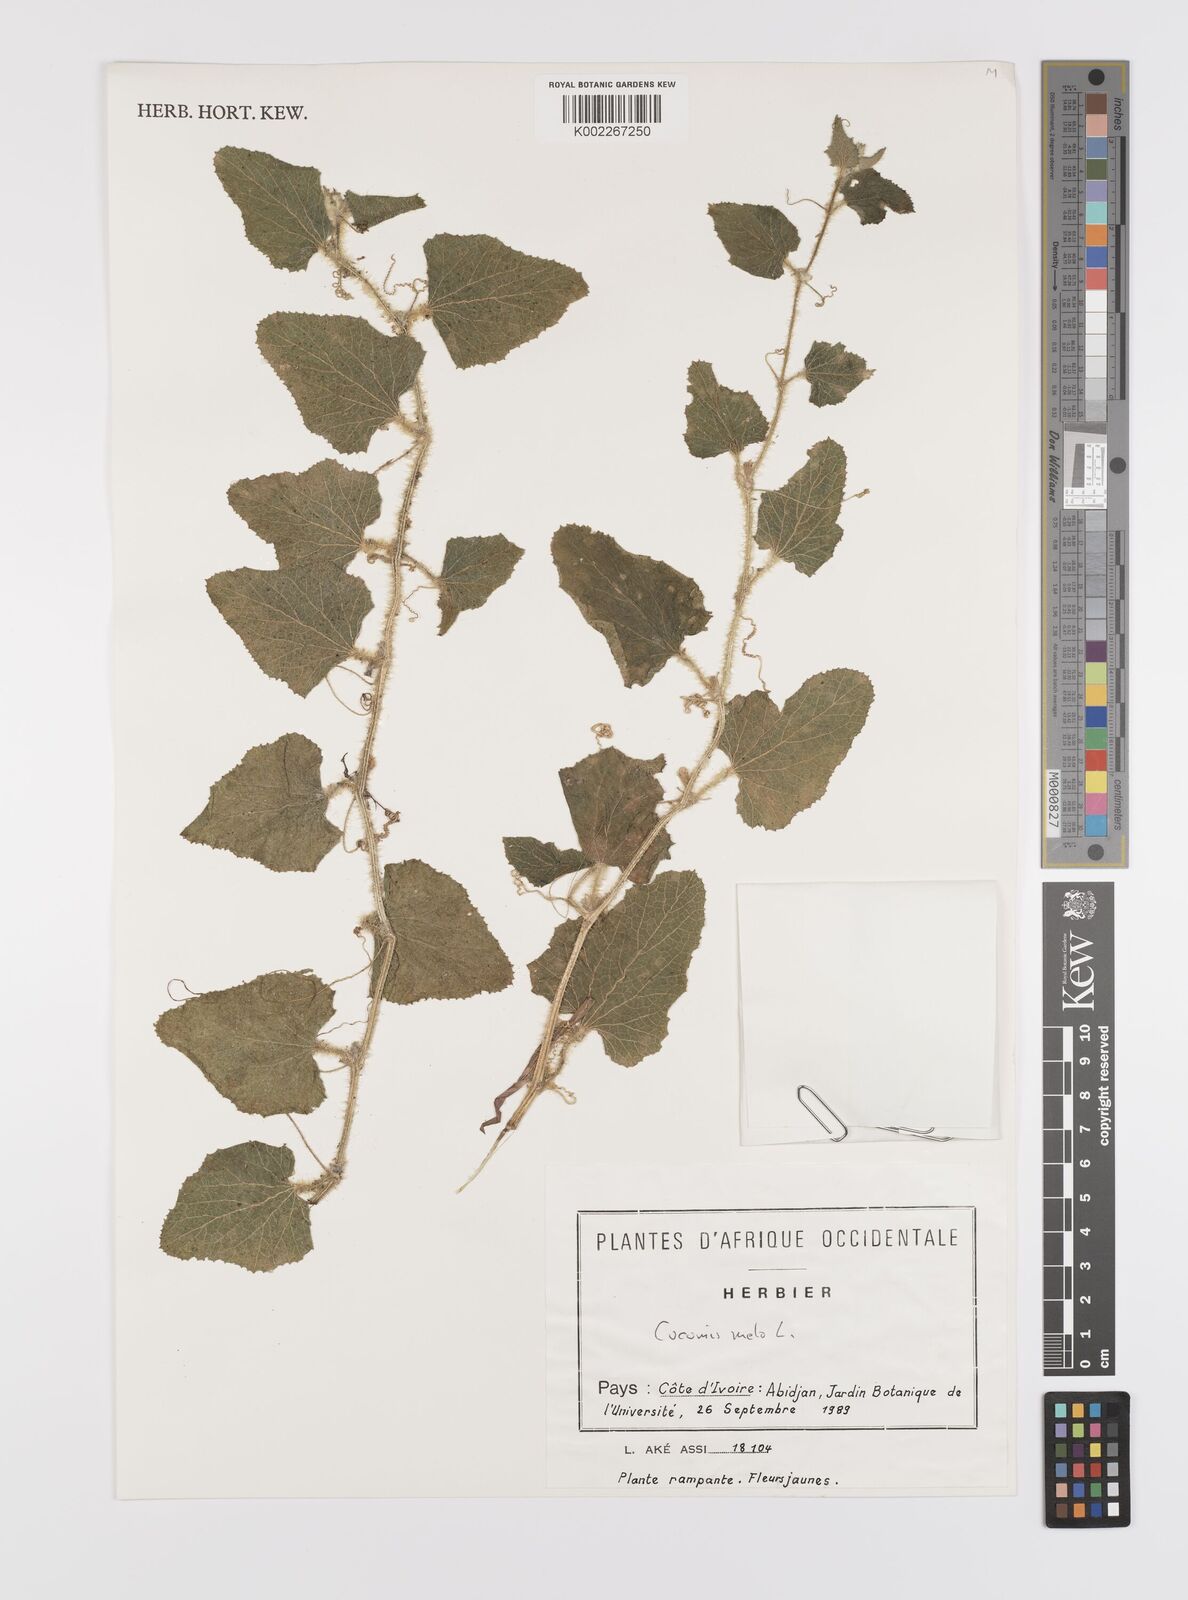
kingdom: Plantae
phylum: Tracheophyta
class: Magnoliopsida
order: Cucurbitales
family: Cucurbitaceae
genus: Cucumis
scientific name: Cucumis melo
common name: Melon
